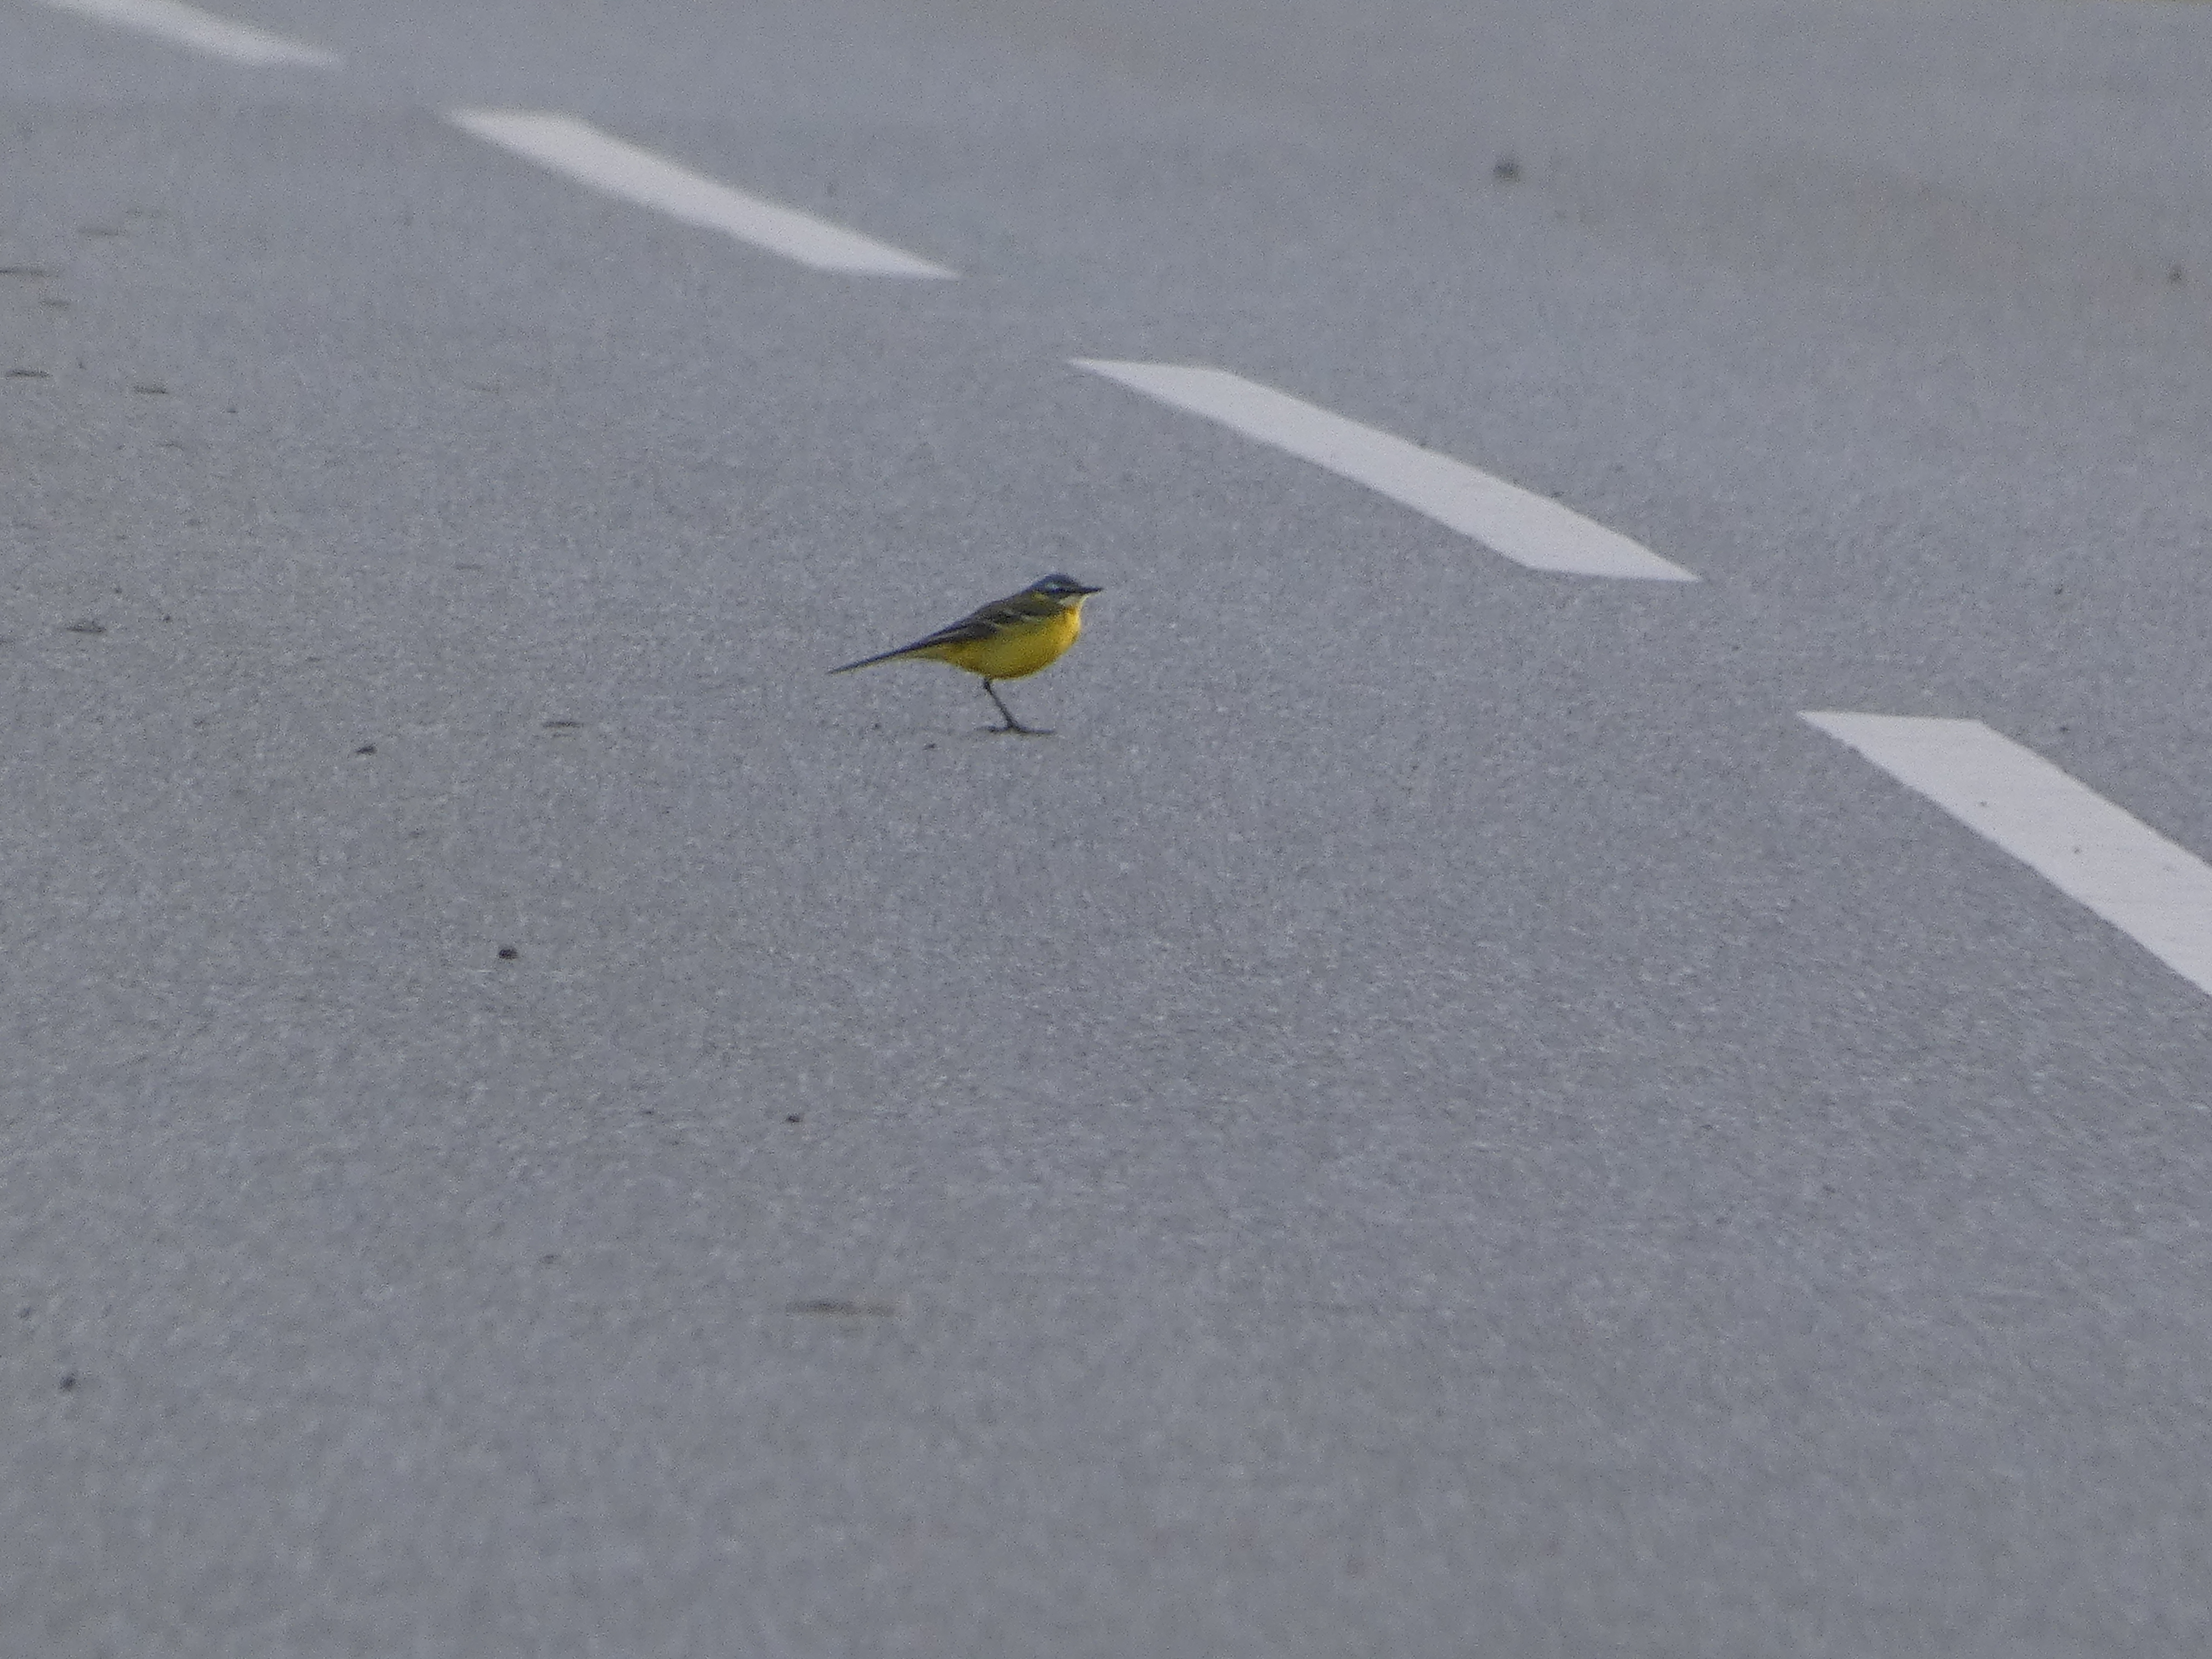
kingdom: Animalia
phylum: Chordata
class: Aves
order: Passeriformes
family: Motacillidae
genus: Motacilla
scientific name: Motacilla flava
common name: Gul vipstjert
